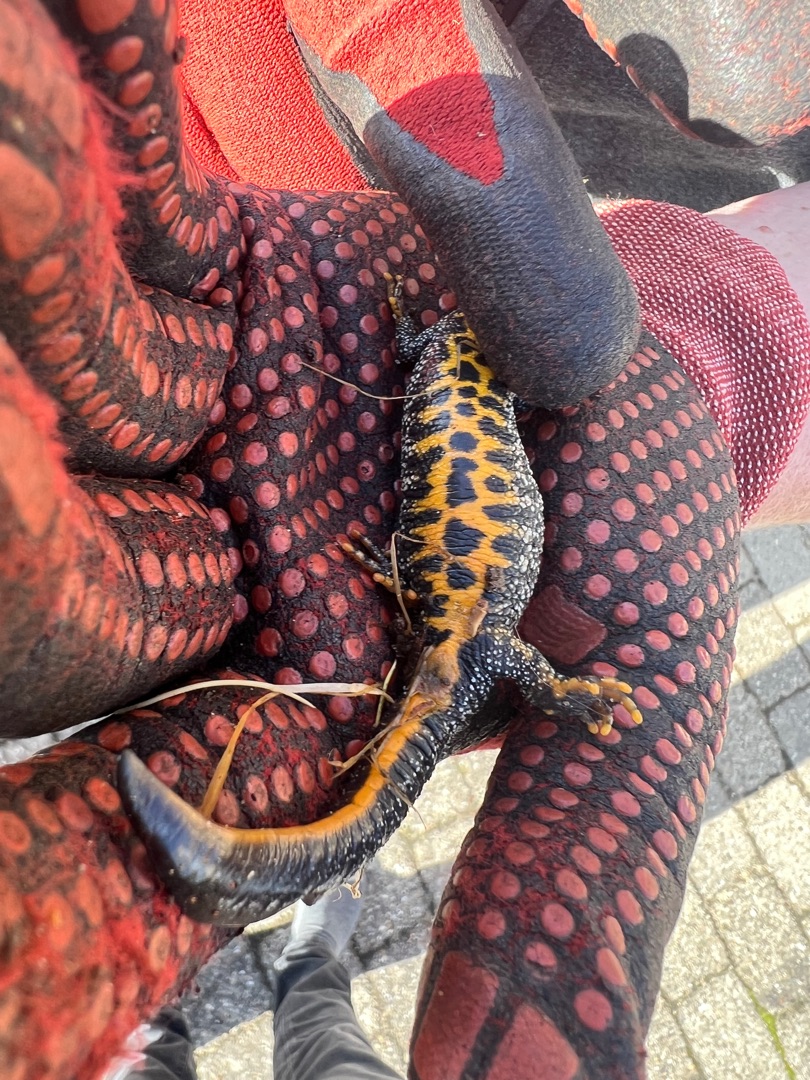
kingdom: Animalia
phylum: Chordata
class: Amphibia
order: Caudata
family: Salamandridae
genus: Triturus
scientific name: Triturus cristatus
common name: Stor vandsalamander
